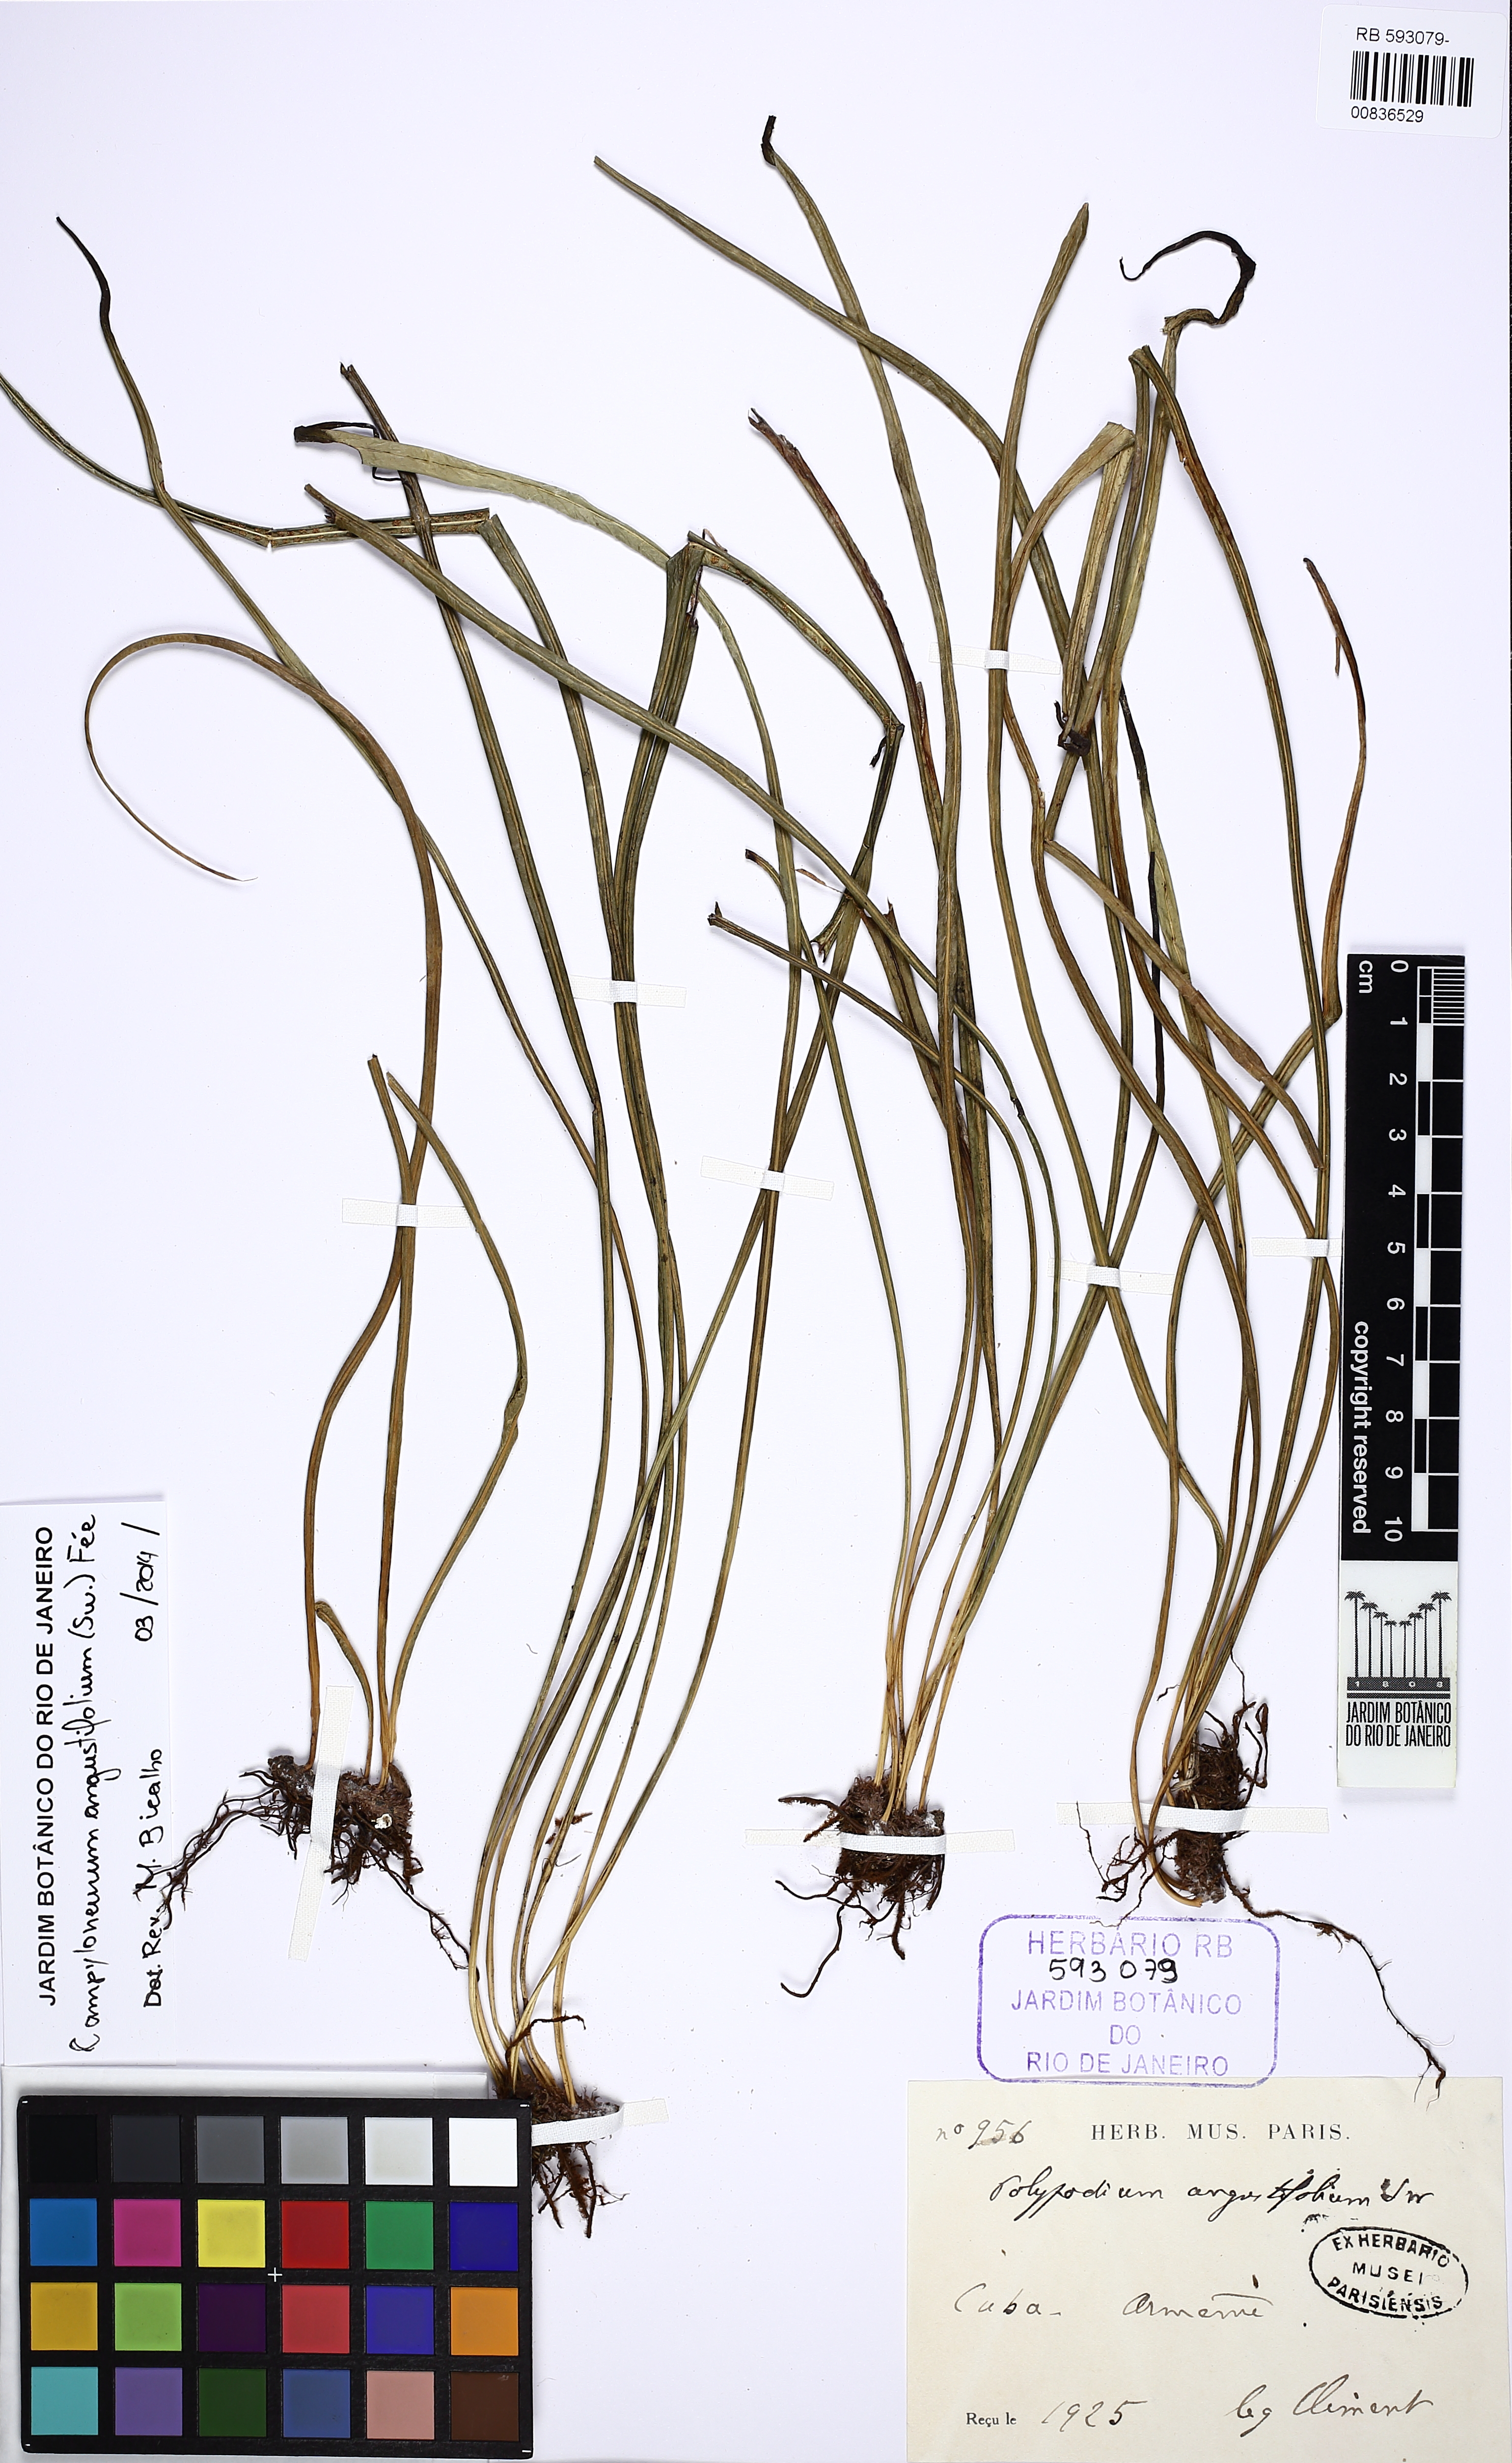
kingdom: Plantae
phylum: Tracheophyta
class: Polypodiopsida
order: Polypodiales
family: Polypodiaceae
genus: Campyloneurum
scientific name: Campyloneurum angustifolium
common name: Narrow-leaf strap fern
